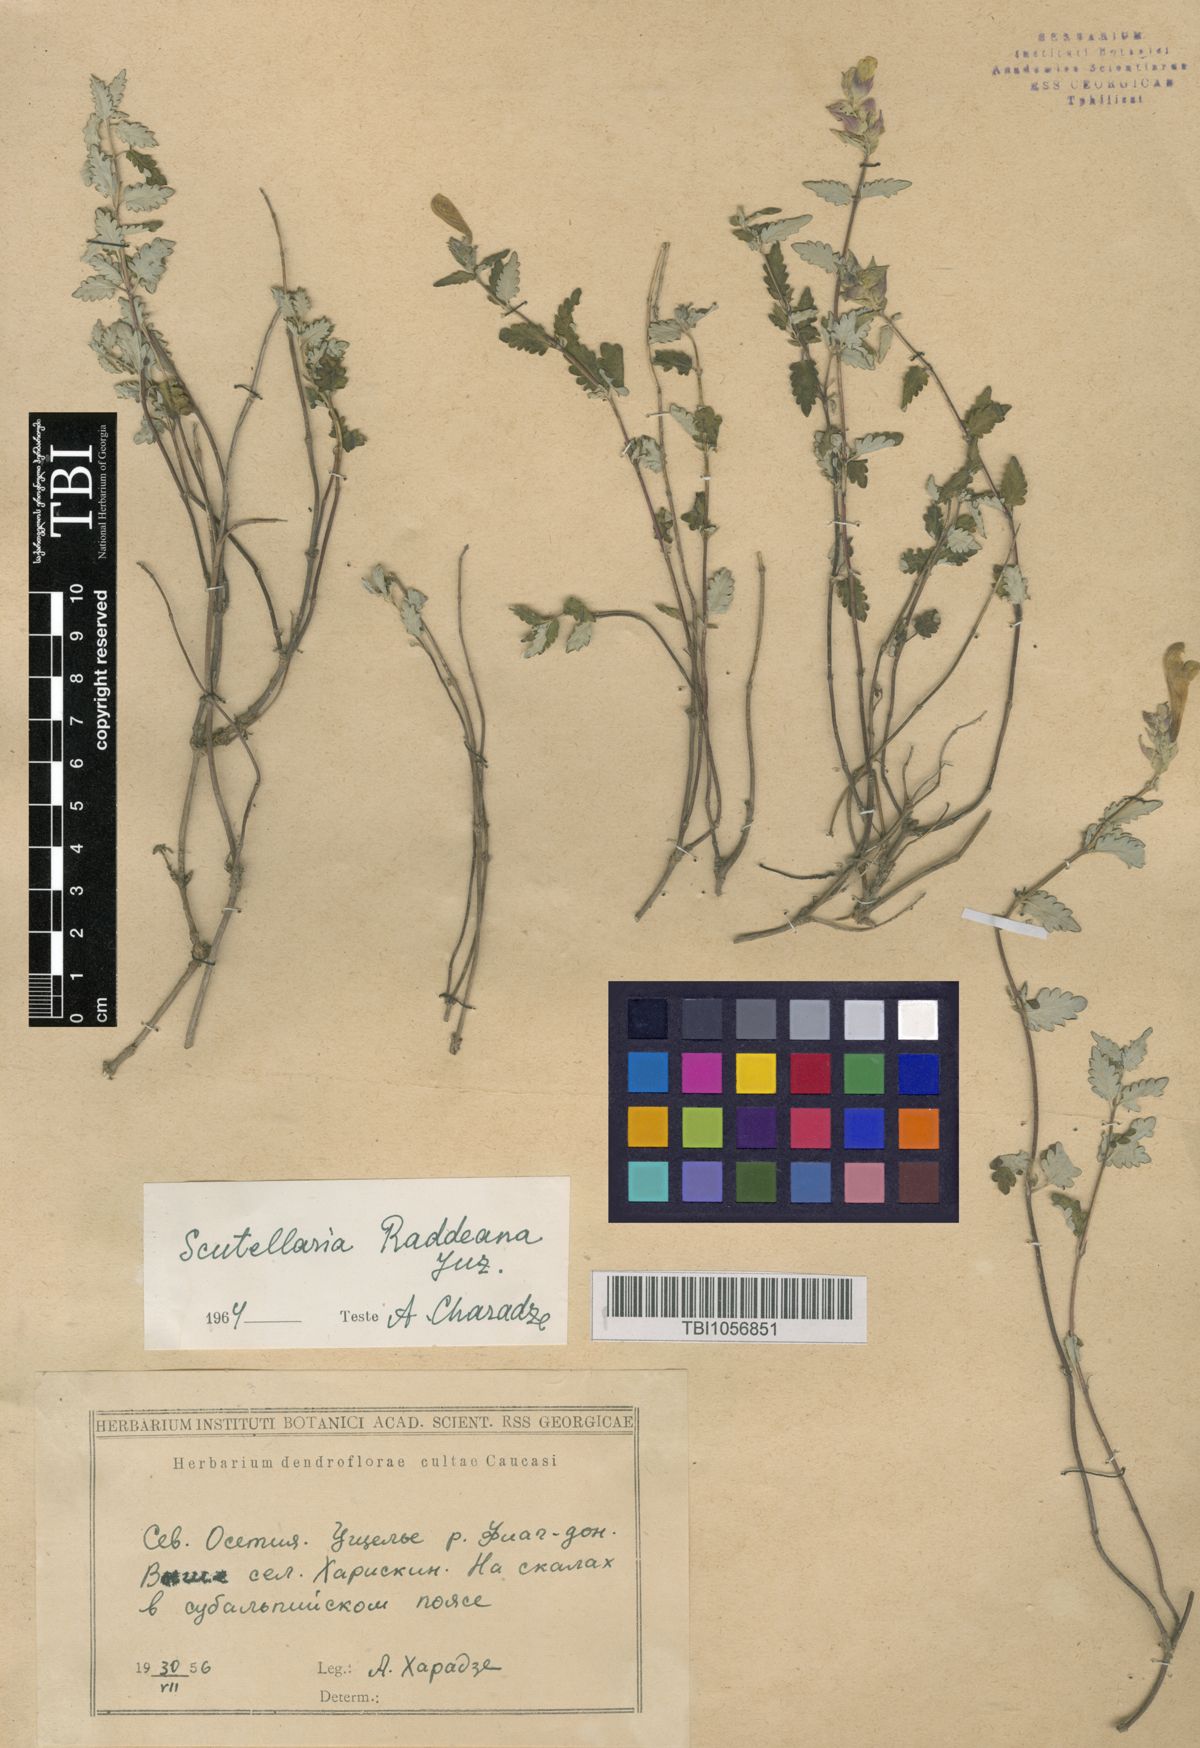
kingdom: Plantae
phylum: Tracheophyta
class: Magnoliopsida
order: Lamiales
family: Lamiaceae
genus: Scutellaria
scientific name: Scutellaria raddeana
